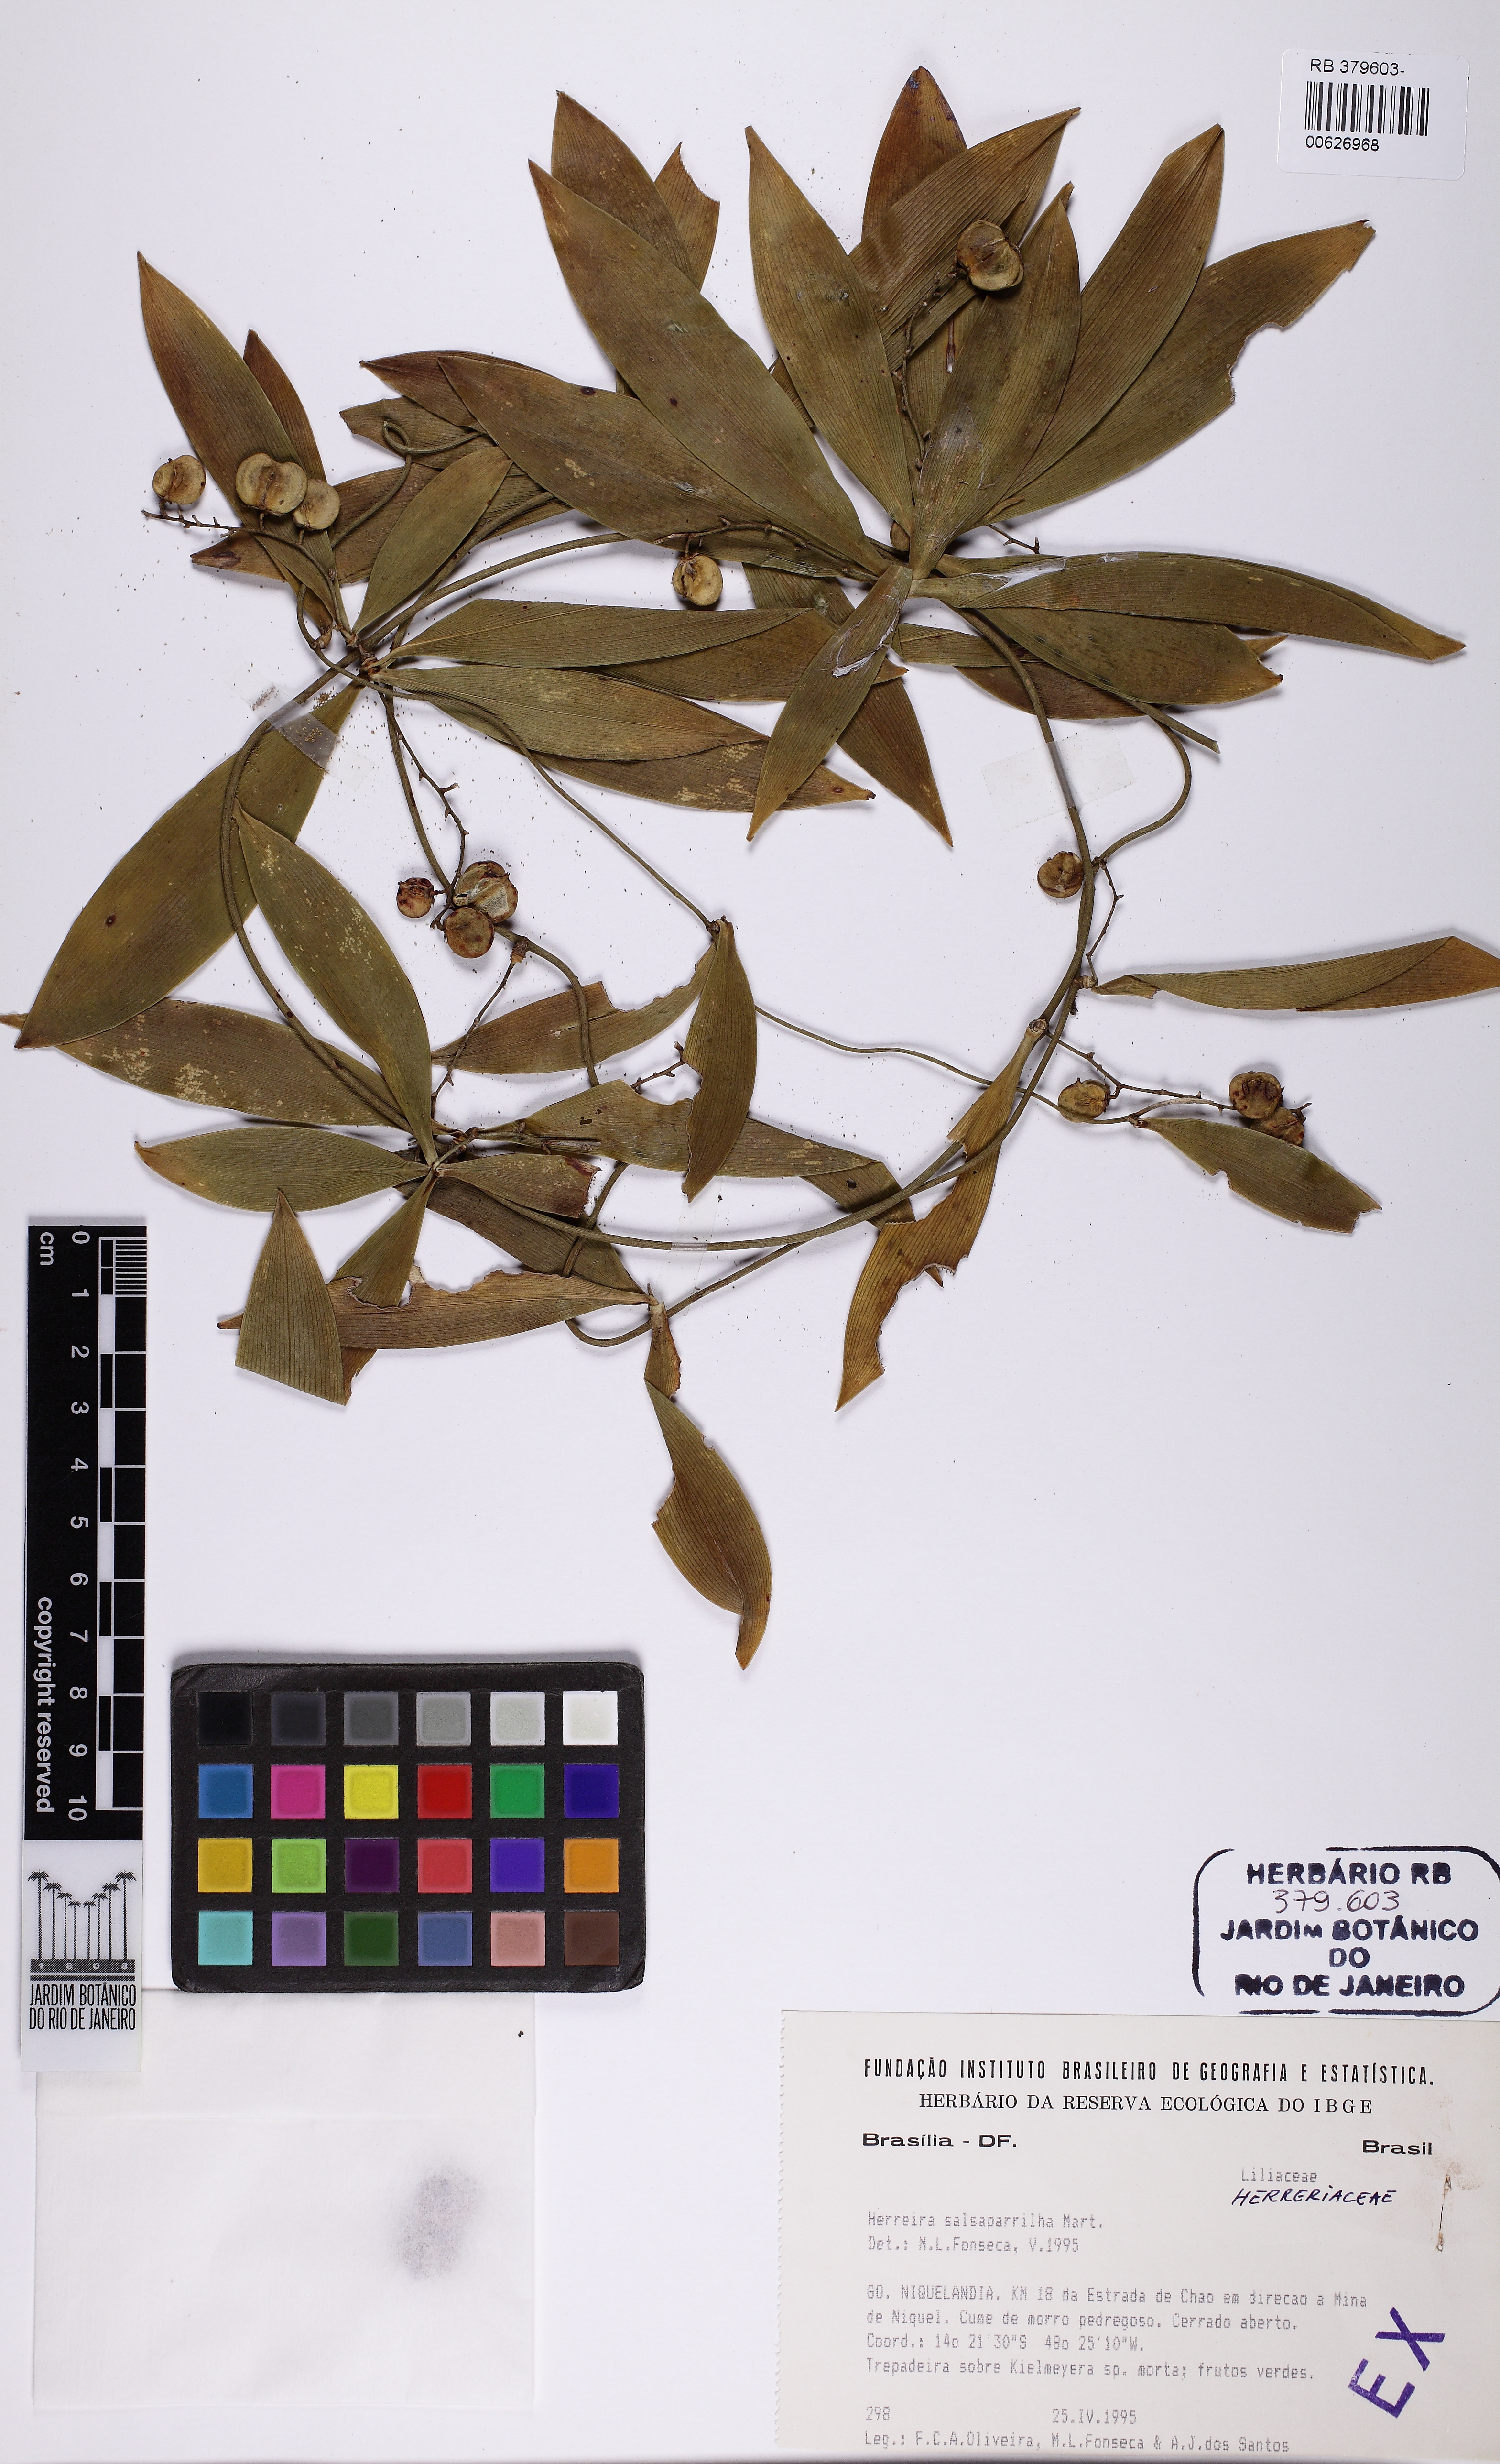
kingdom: Plantae
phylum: Tracheophyta
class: Liliopsida
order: Asparagales
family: Asparagaceae
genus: Herreria
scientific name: Herreria salsaparilha
